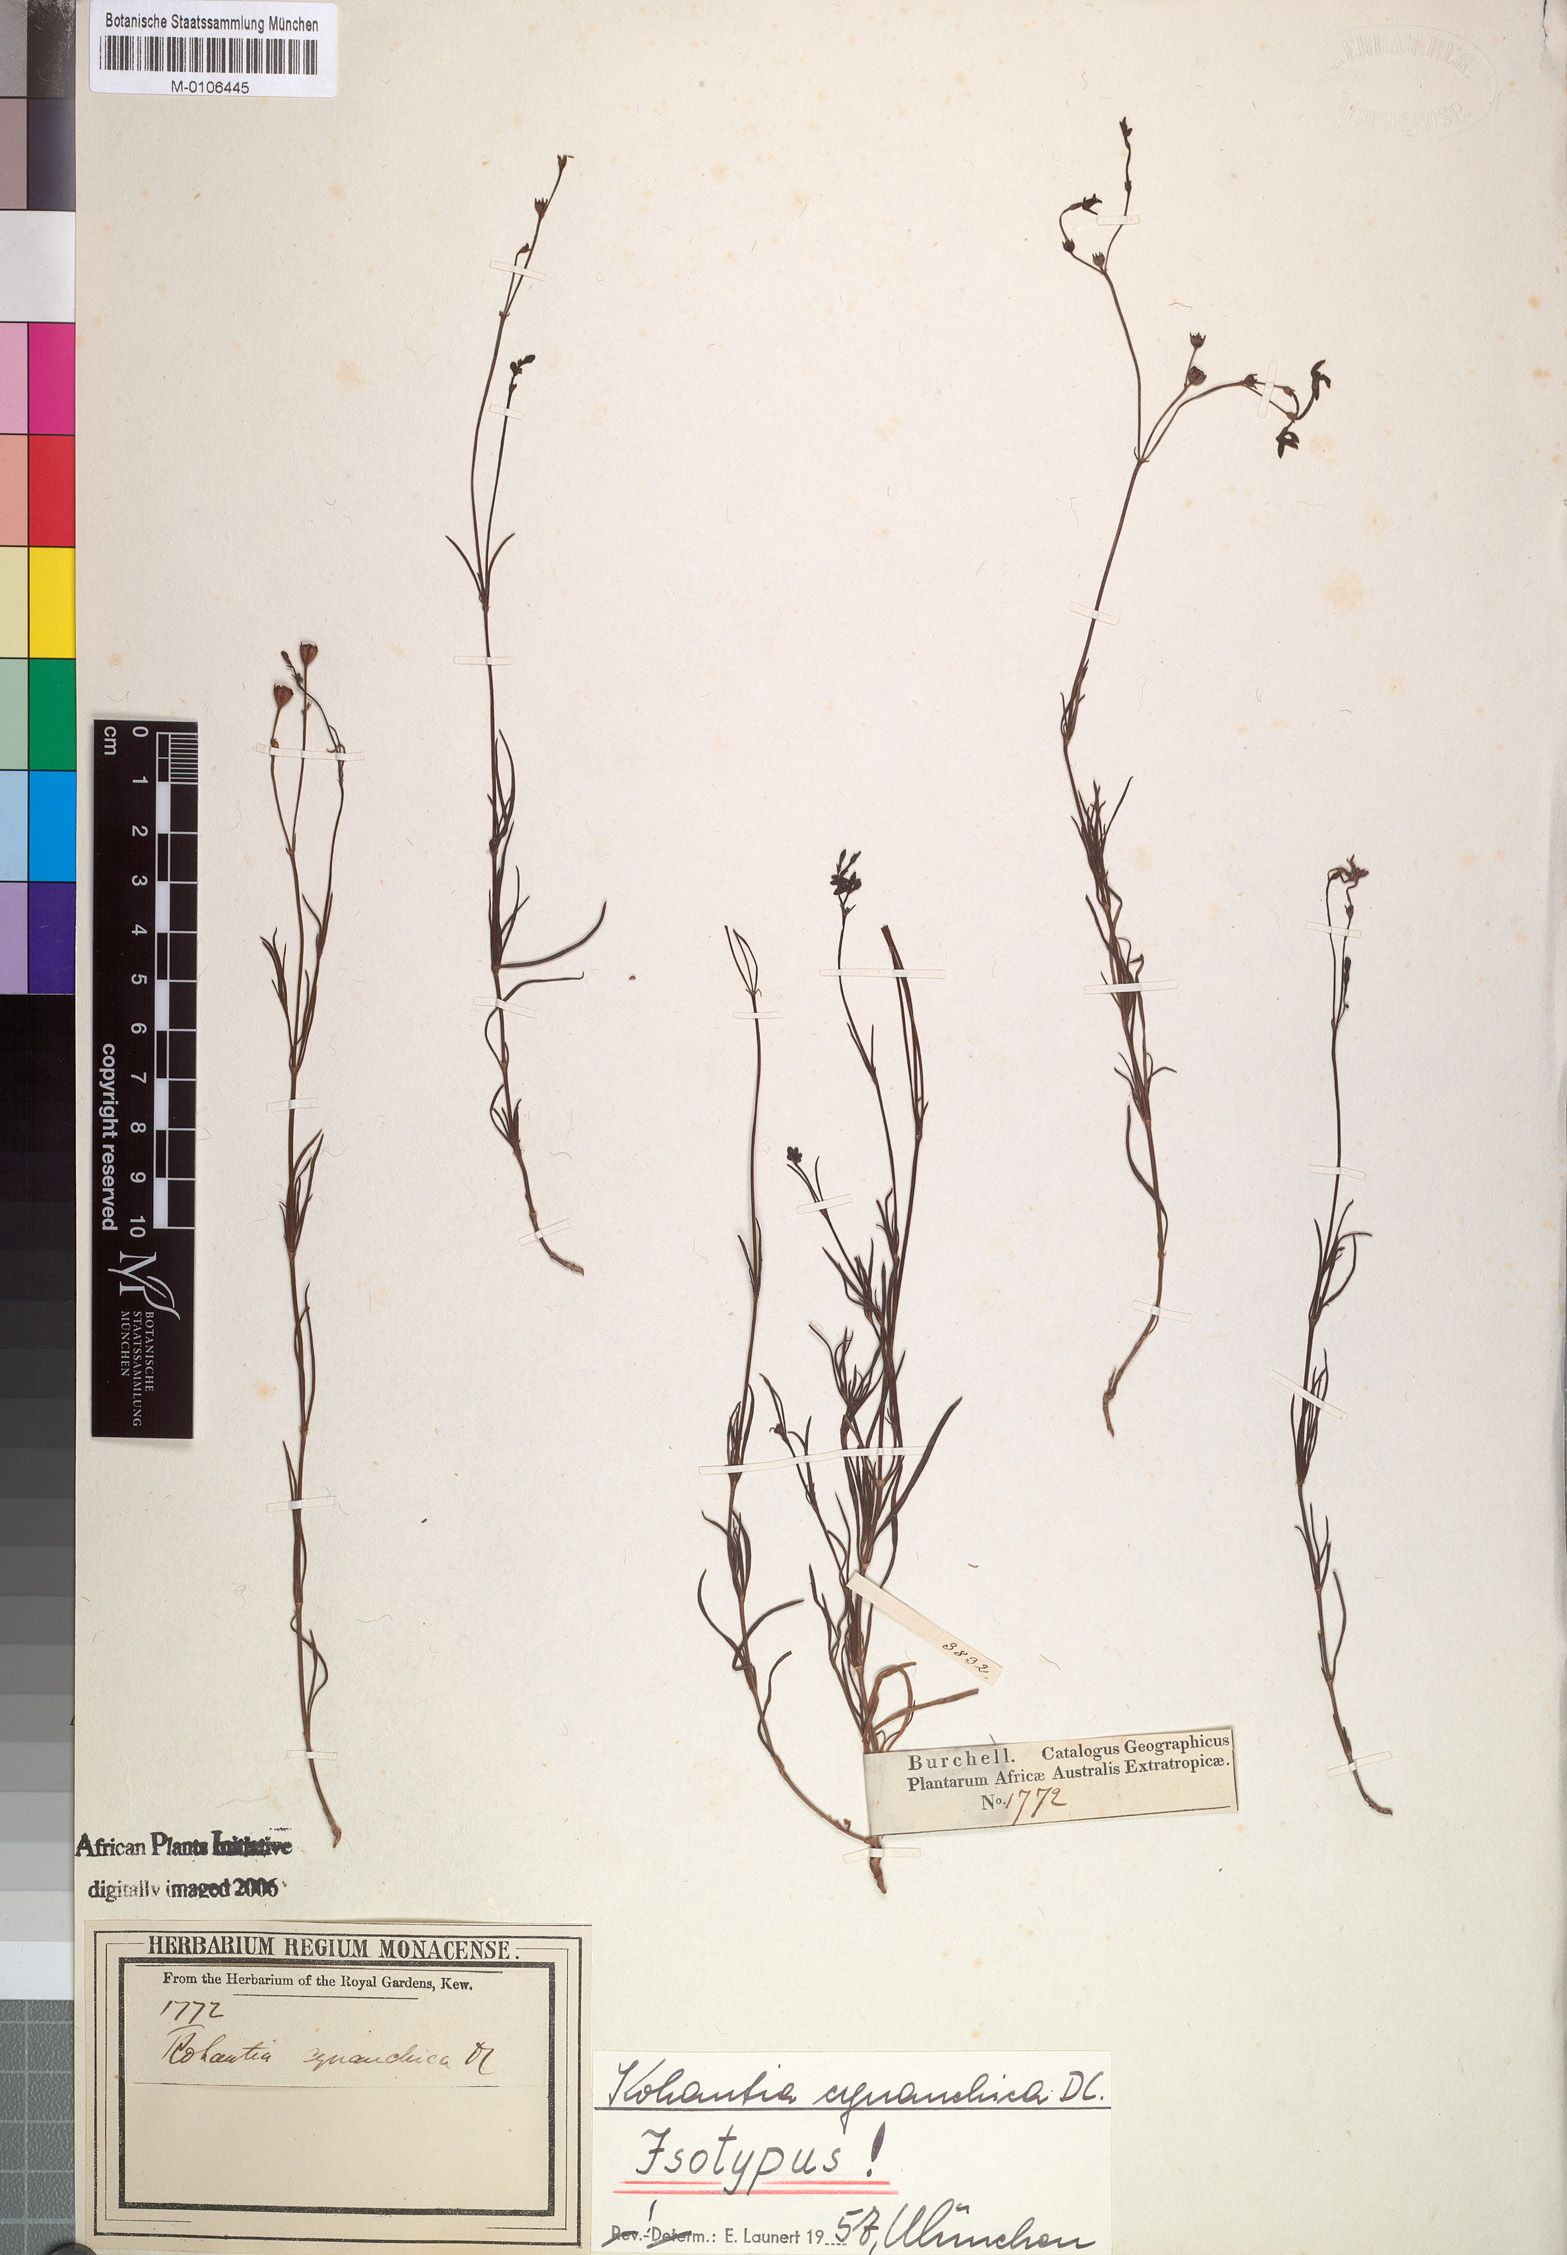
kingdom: Plantae
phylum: Tracheophyta
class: Magnoliopsida
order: Gentianales
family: Rubiaceae
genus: Kohautia
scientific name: Kohautia cynanchica
